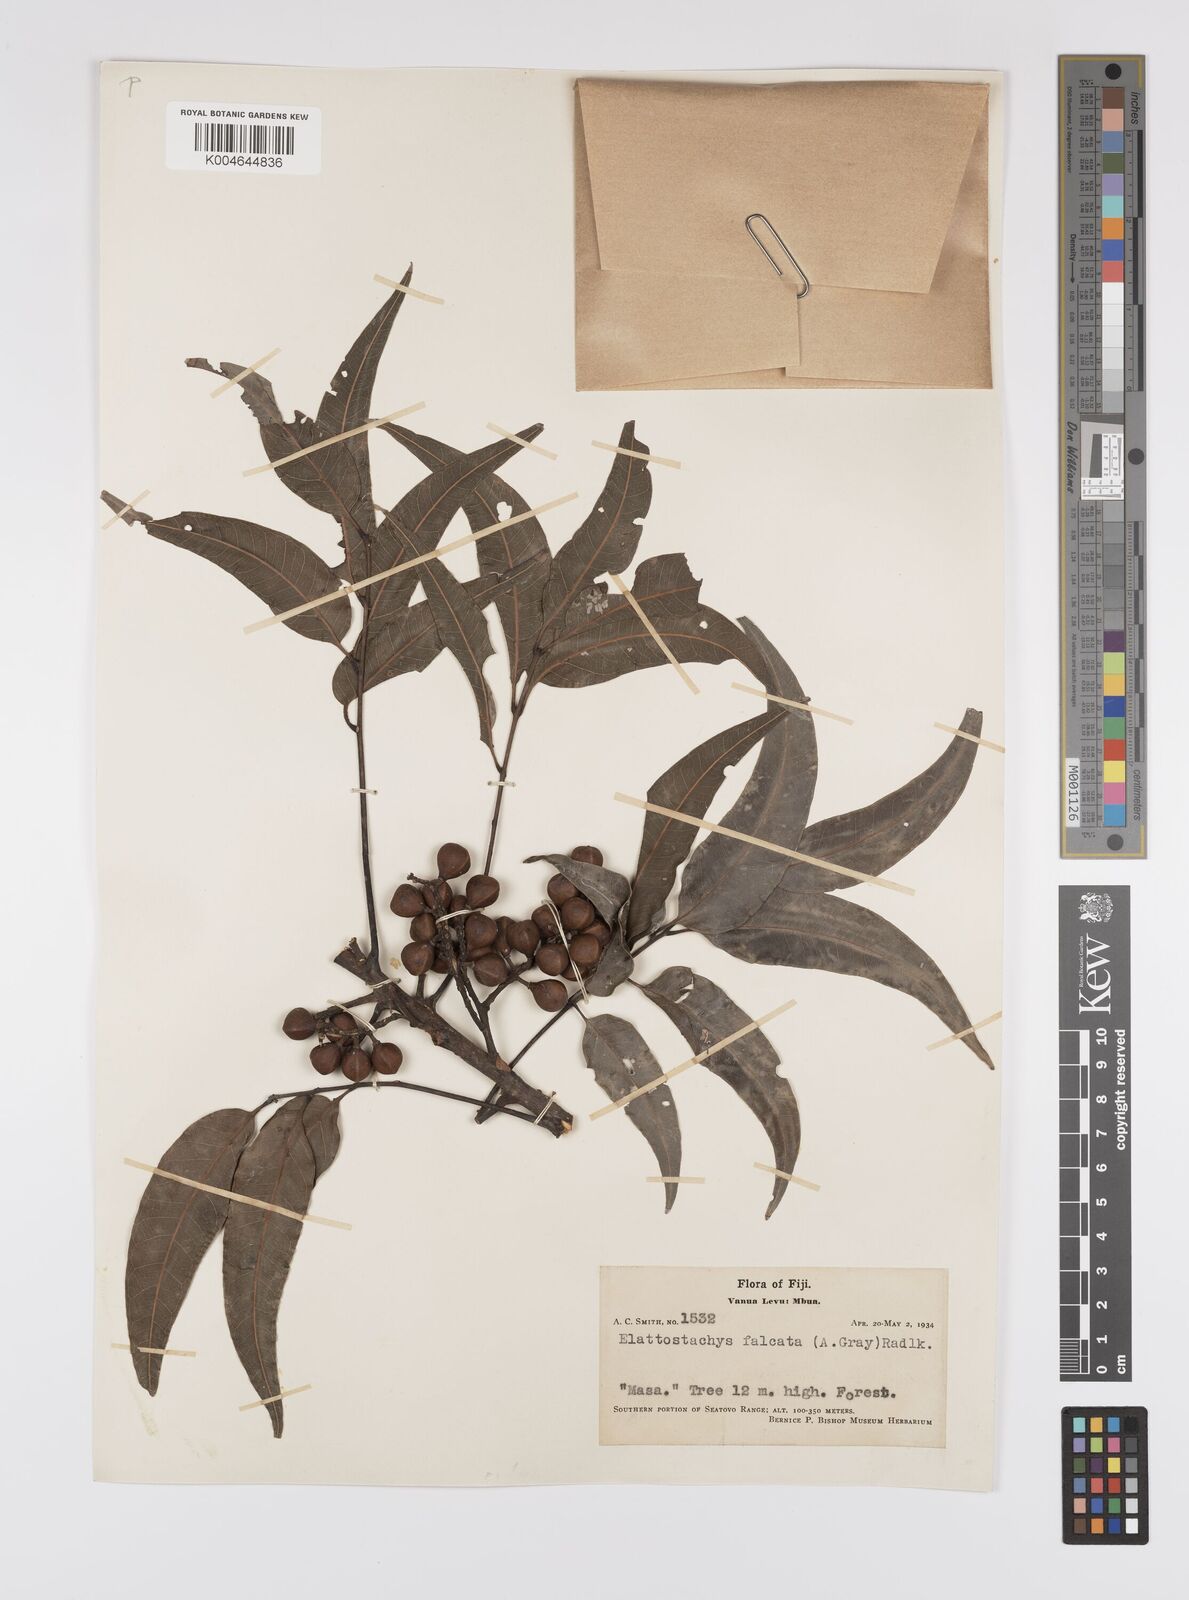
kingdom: Plantae
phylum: Tracheophyta
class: Magnoliopsida
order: Sapindales
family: Sapindaceae
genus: Elattostachys
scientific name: Elattostachys apetala
